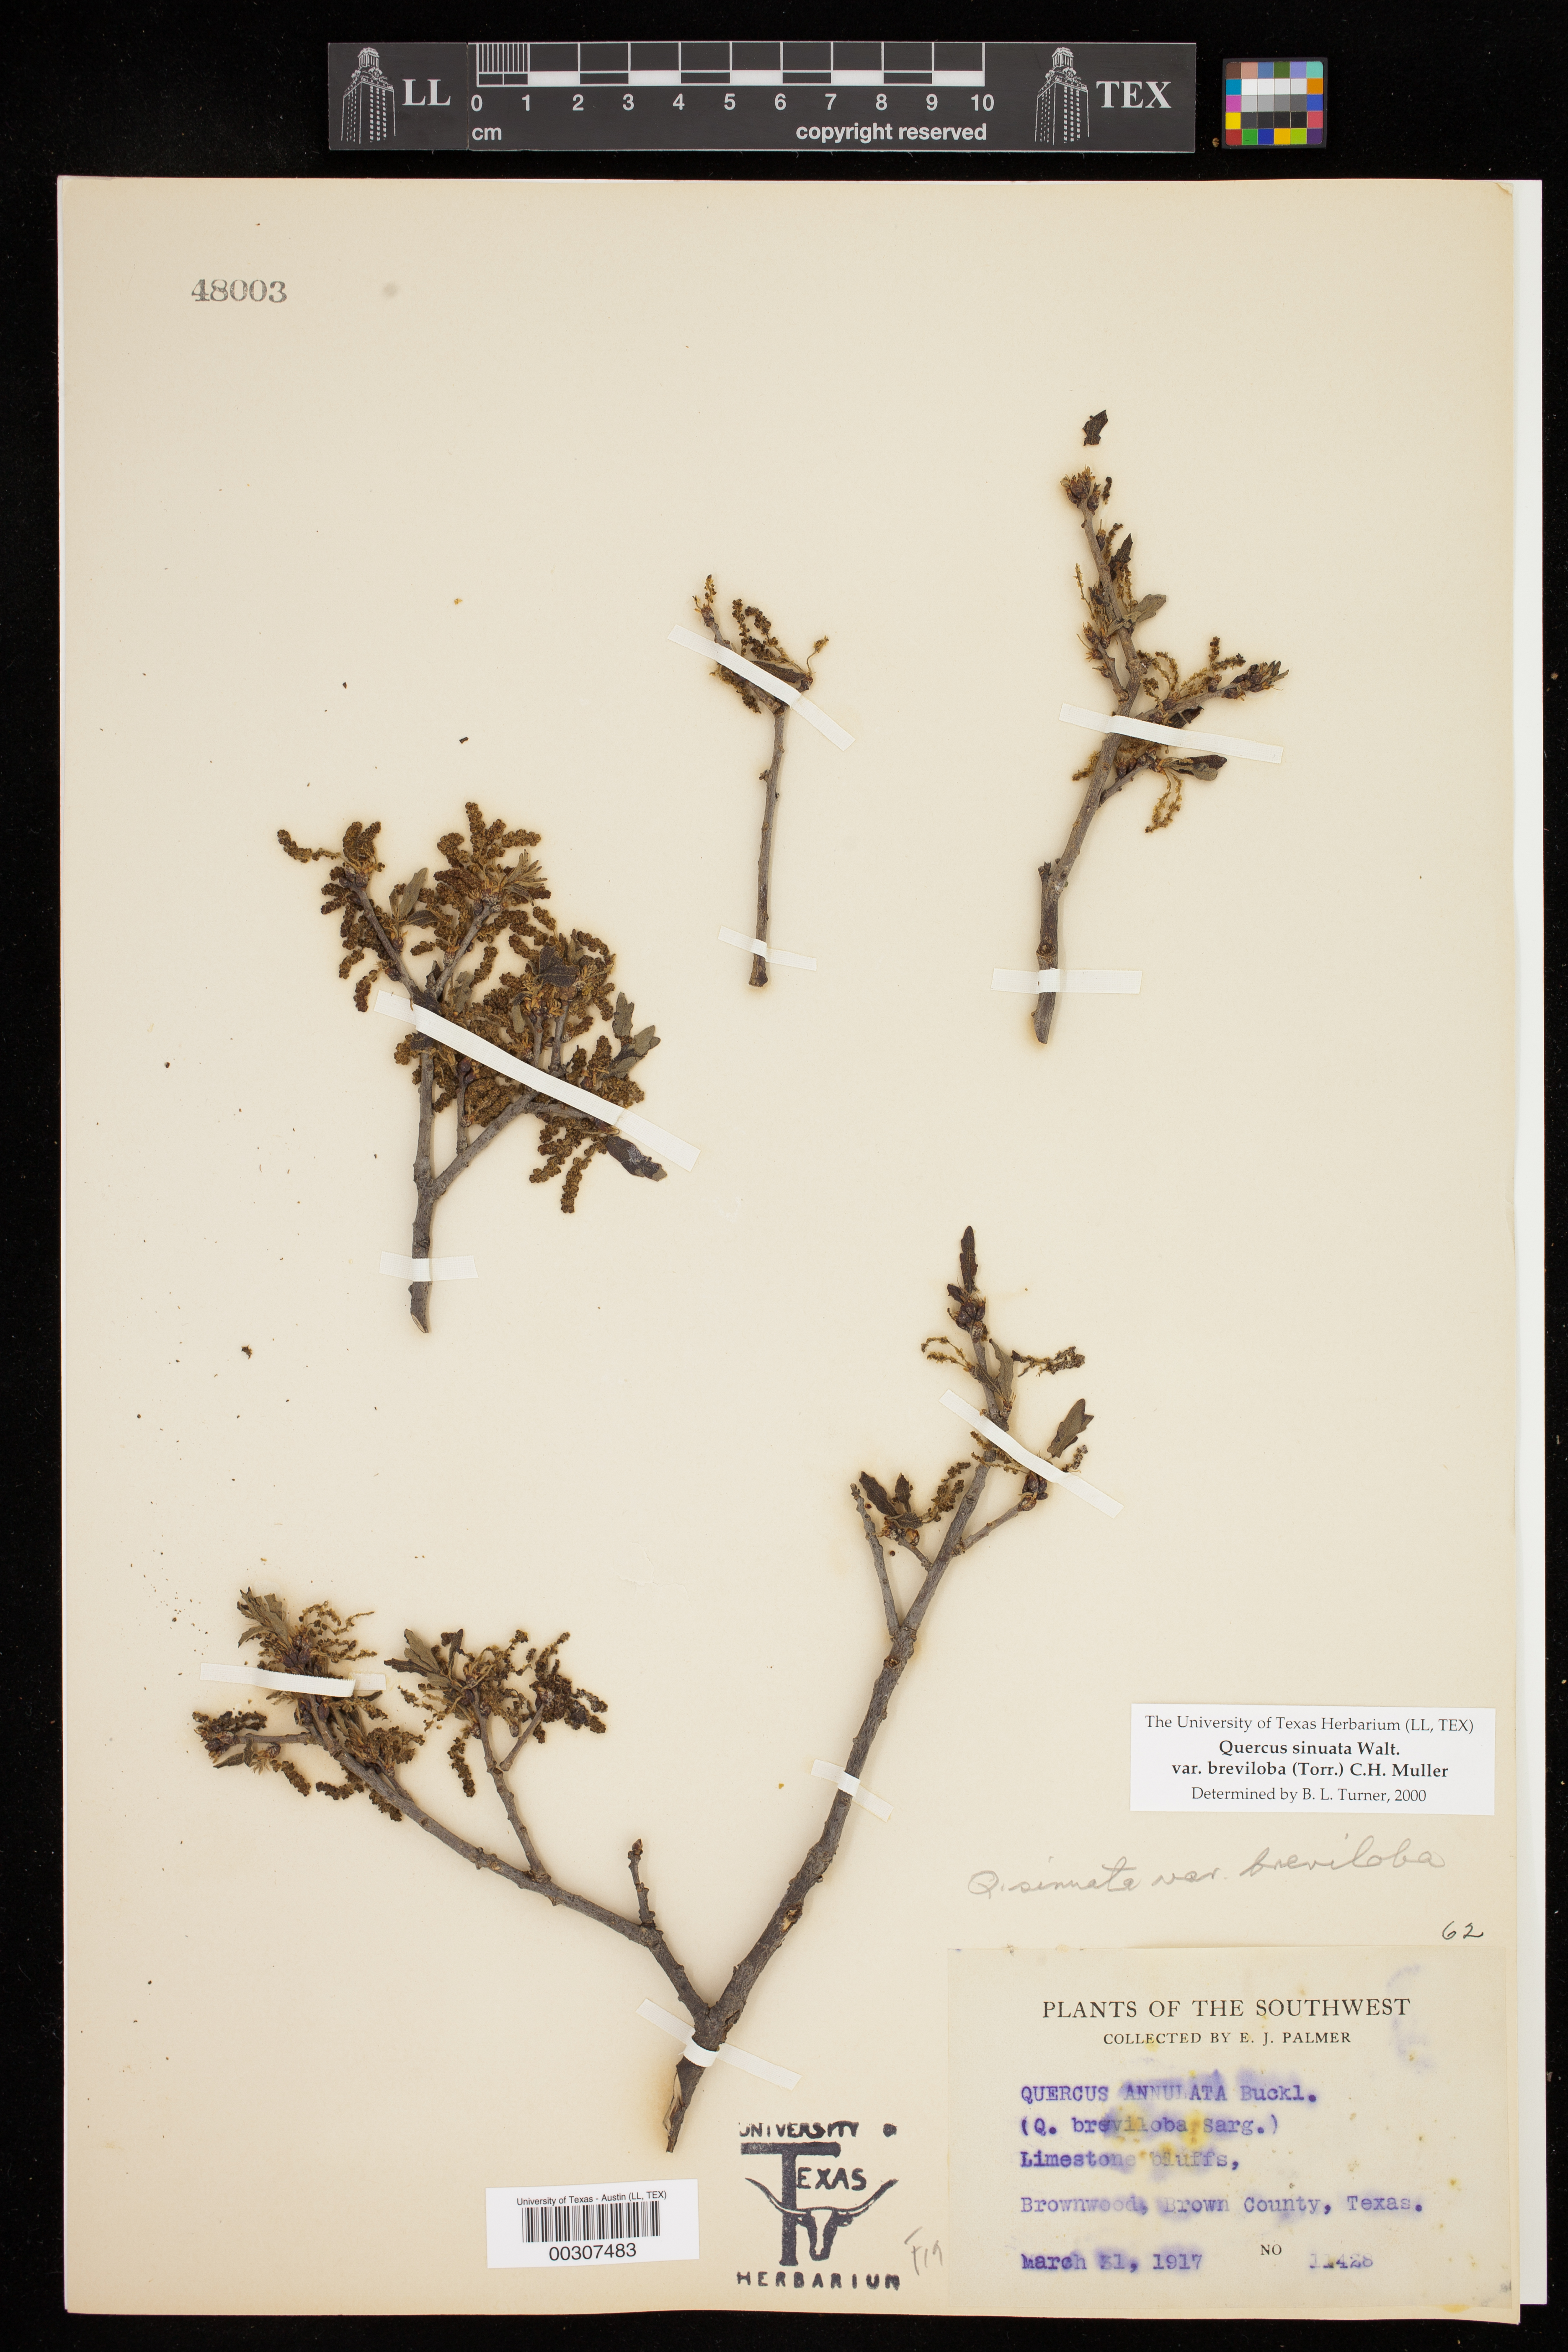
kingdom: Plantae
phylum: Tracheophyta
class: Magnoliopsida
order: Fagales
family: Fagaceae
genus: Quercus
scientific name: Quercus sinuata
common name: Durand oak
